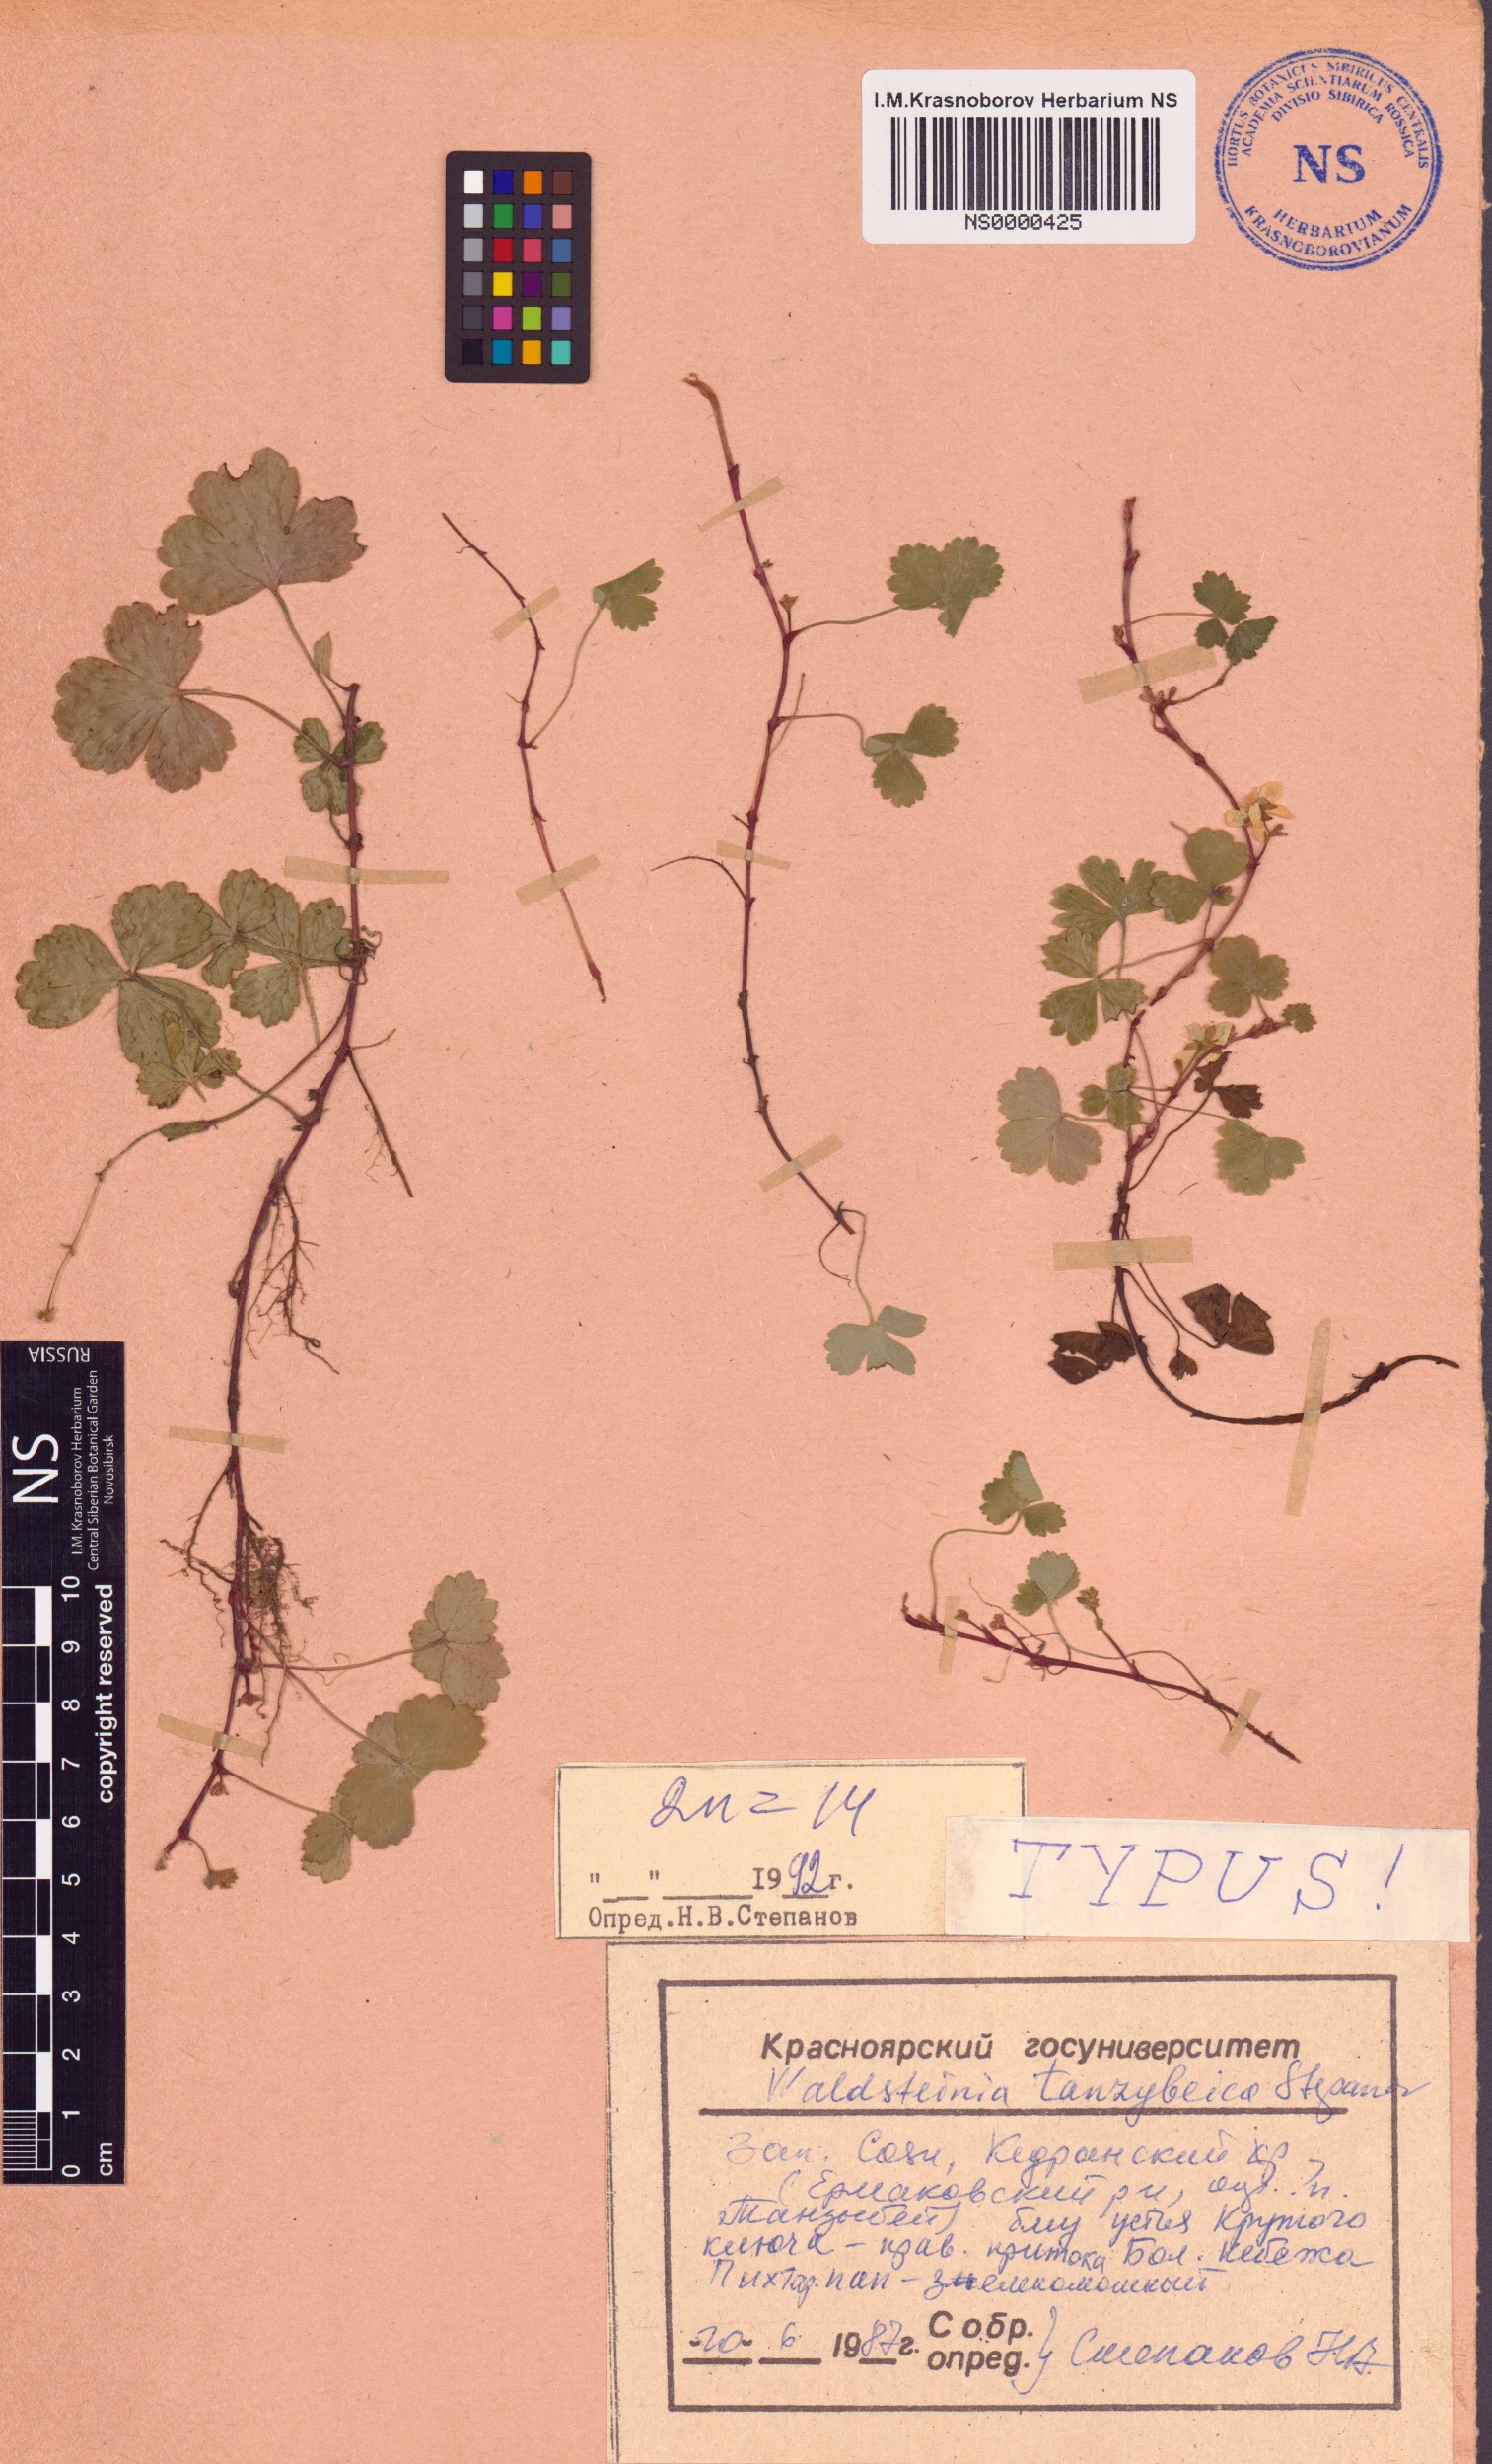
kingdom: Plantae
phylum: Tracheophyta
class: Magnoliopsida
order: Rosales
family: Rosaceae
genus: Geum
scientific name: Geum tanzybeicum
